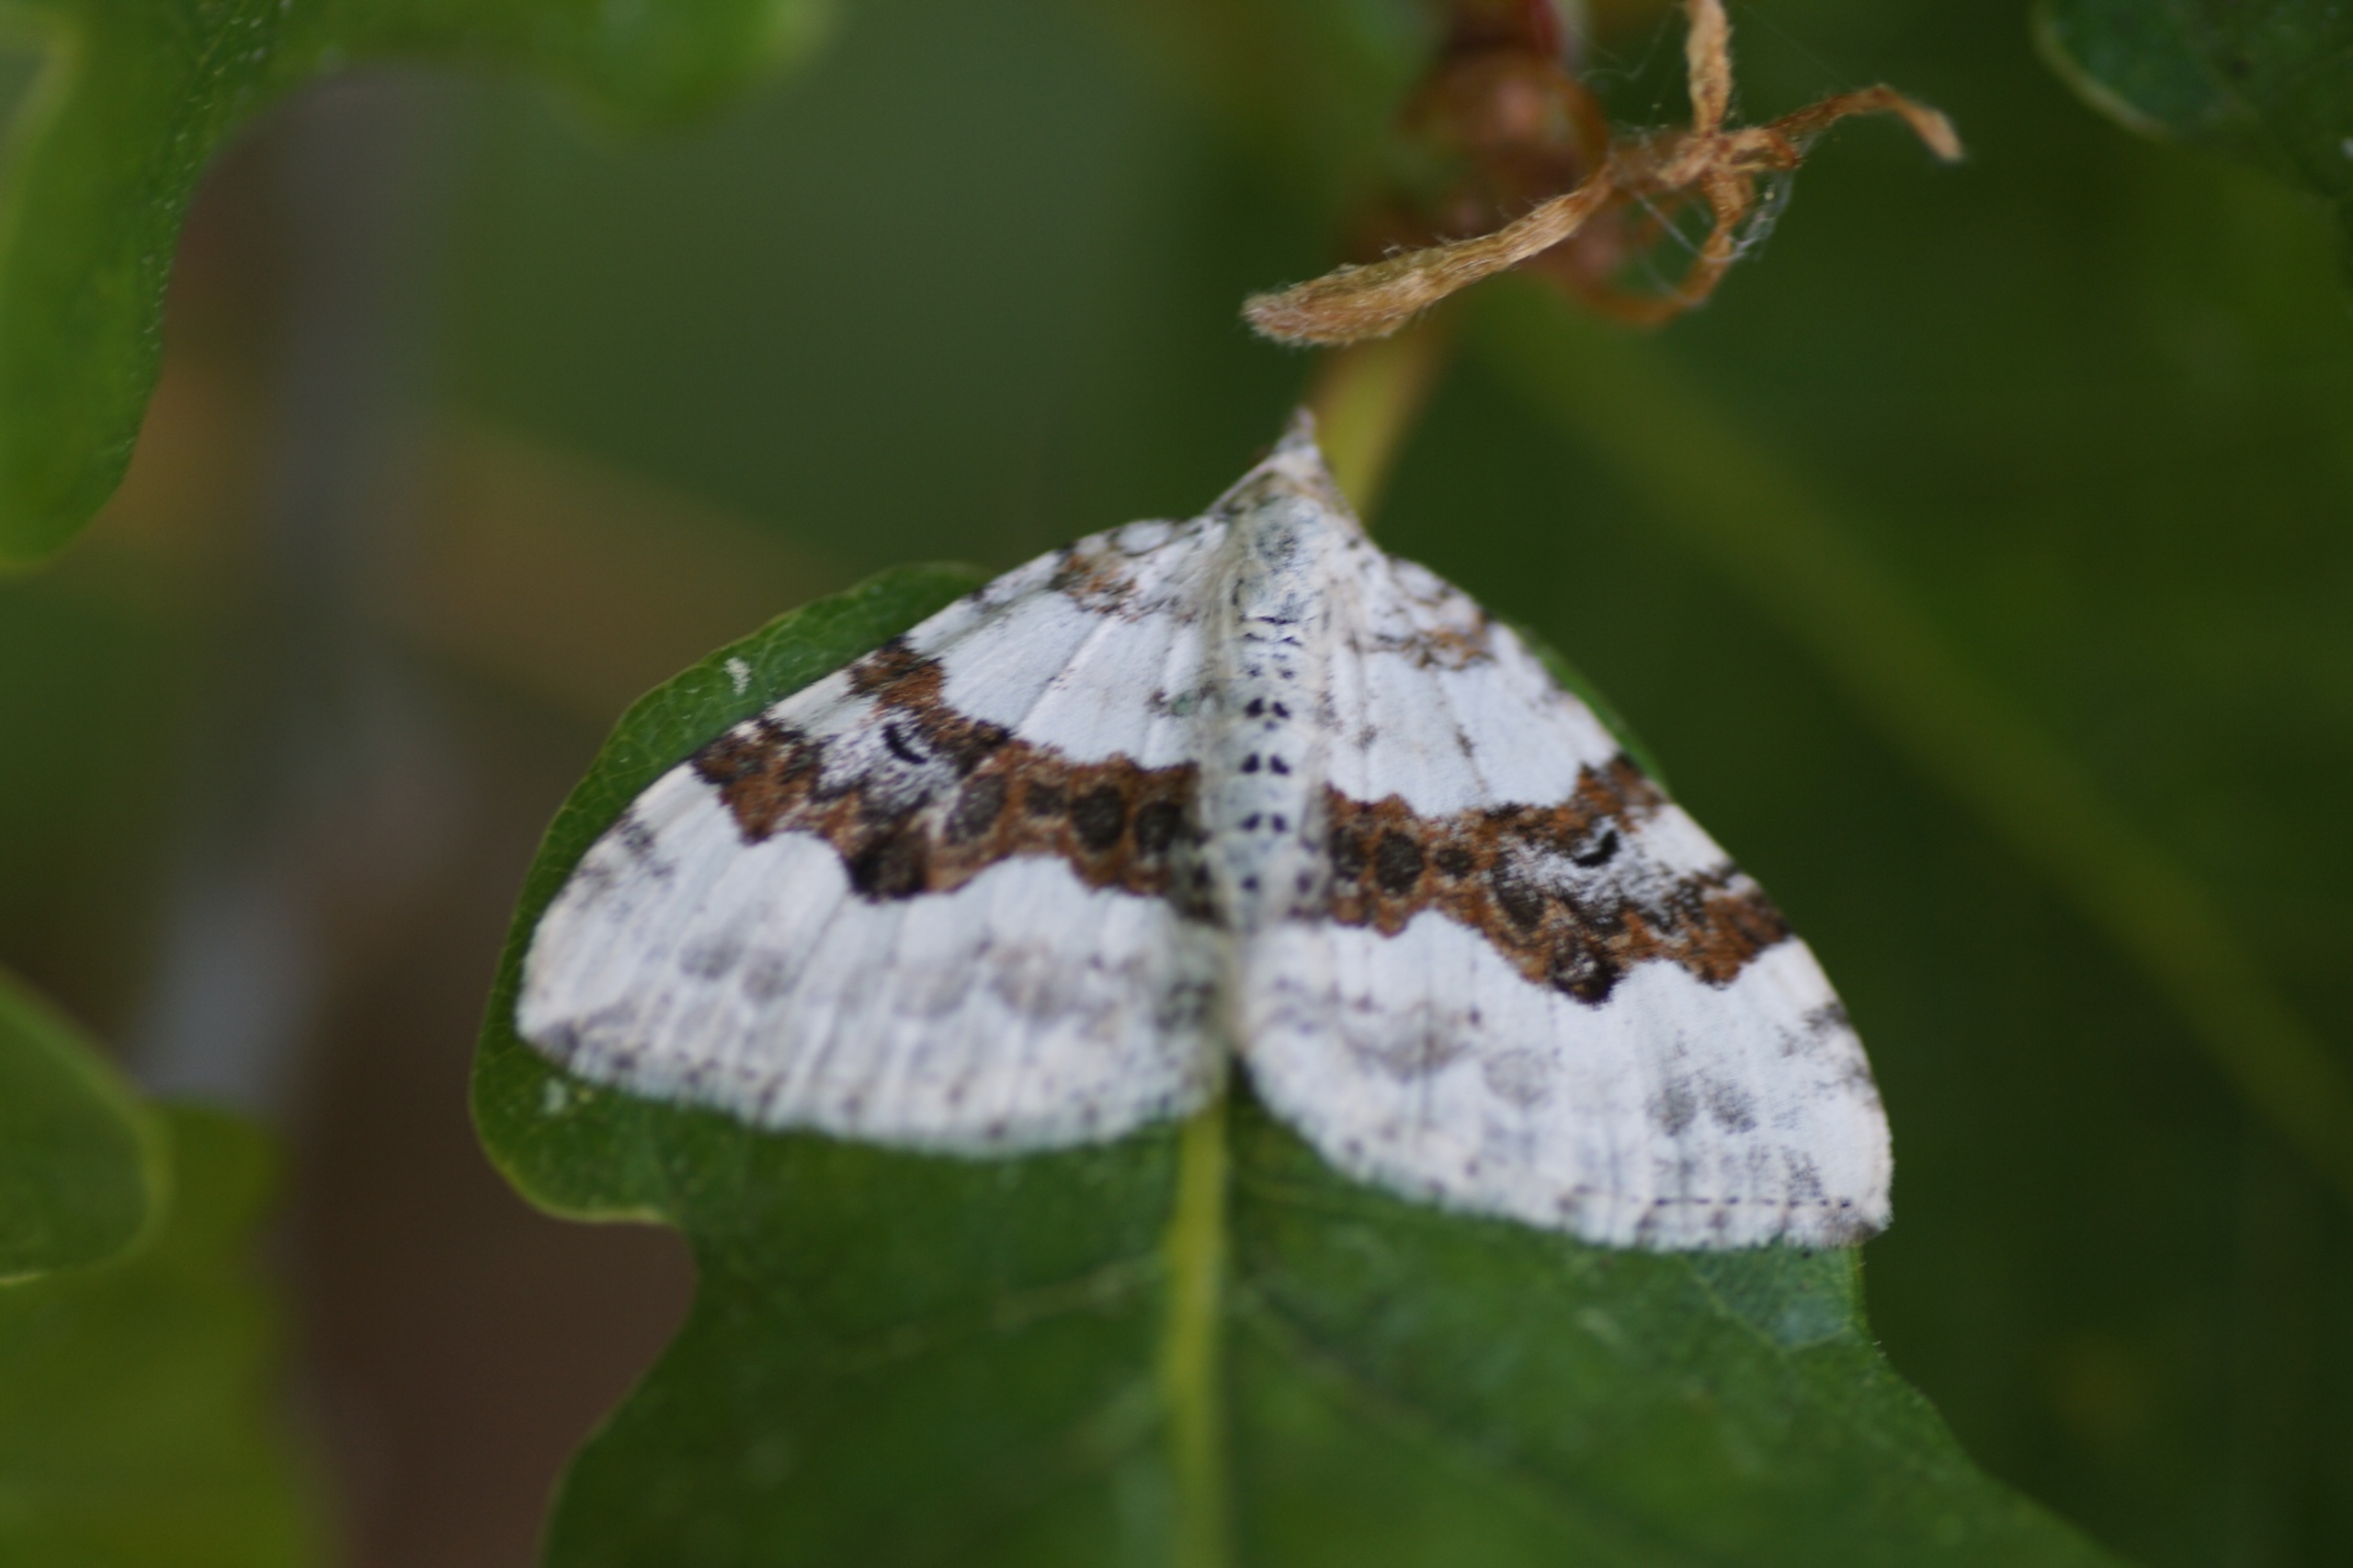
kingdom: Animalia
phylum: Arthropoda
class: Insecta
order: Lepidoptera
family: Geometridae
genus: Xanthorhoe
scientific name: Xanthorhoe montanata
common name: Bakke-bladmåler
